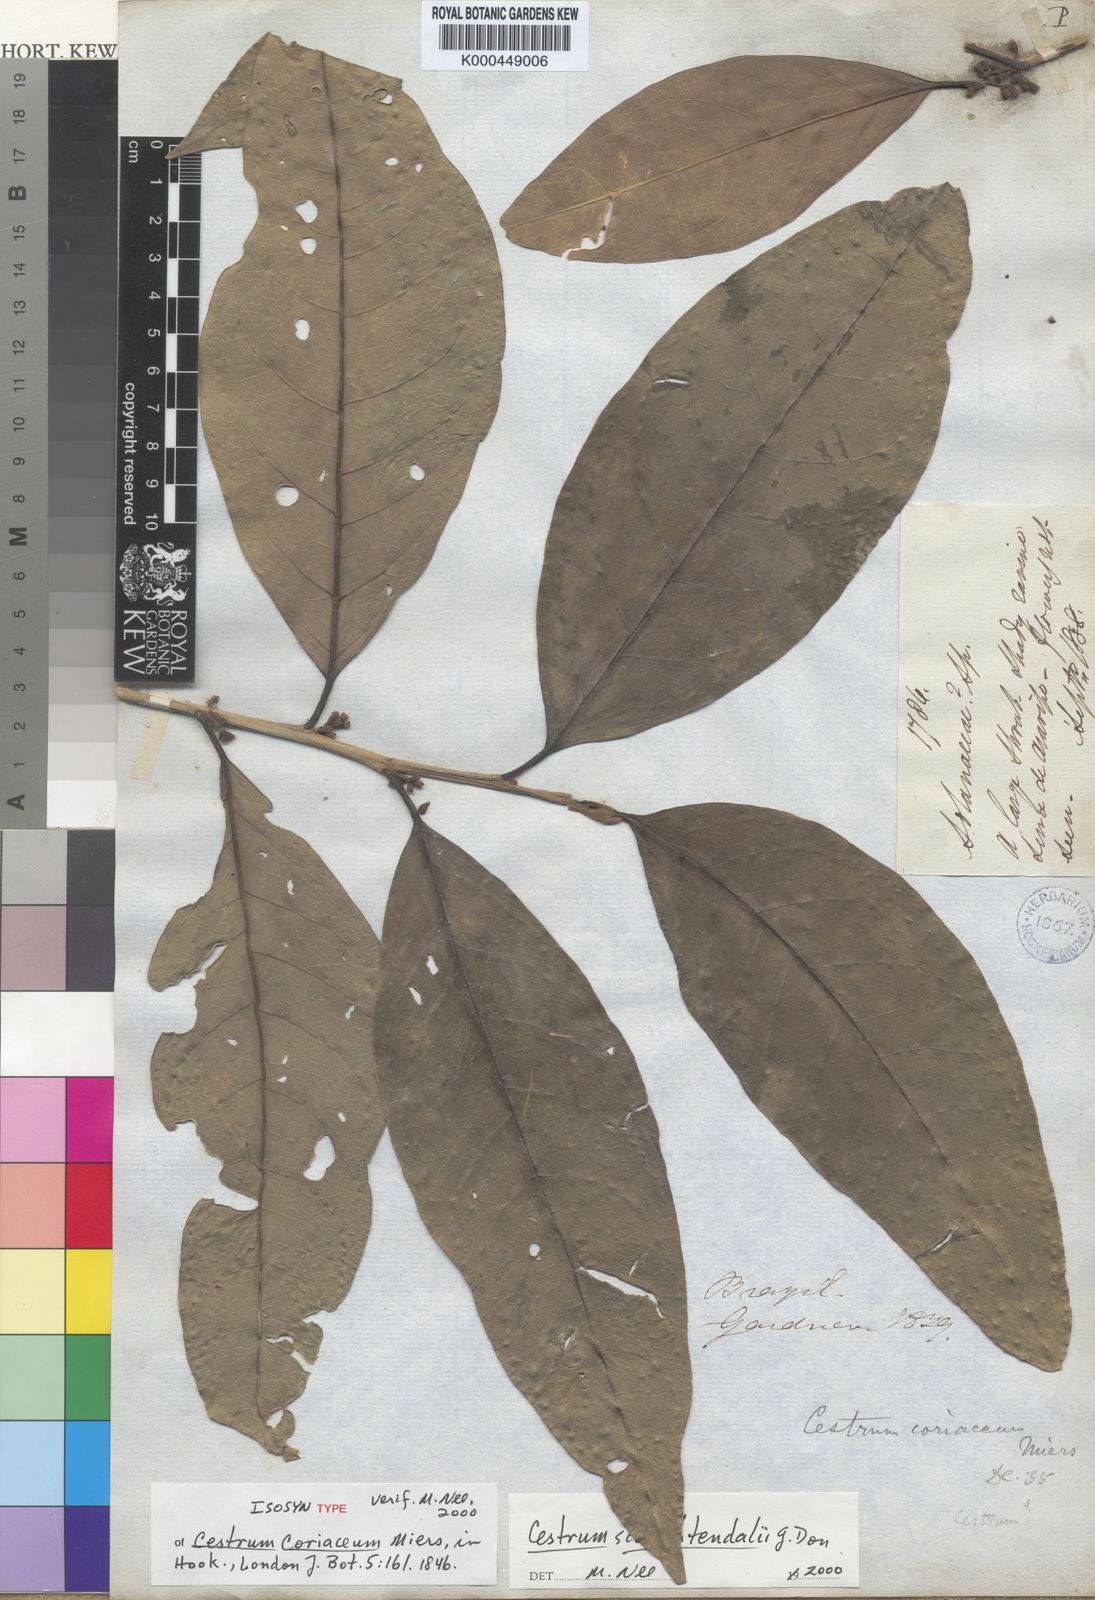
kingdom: Plantae
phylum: Tracheophyta
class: Magnoliopsida
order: Solanales
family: Solanaceae
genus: Cestrum
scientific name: Cestrum coriaceum
